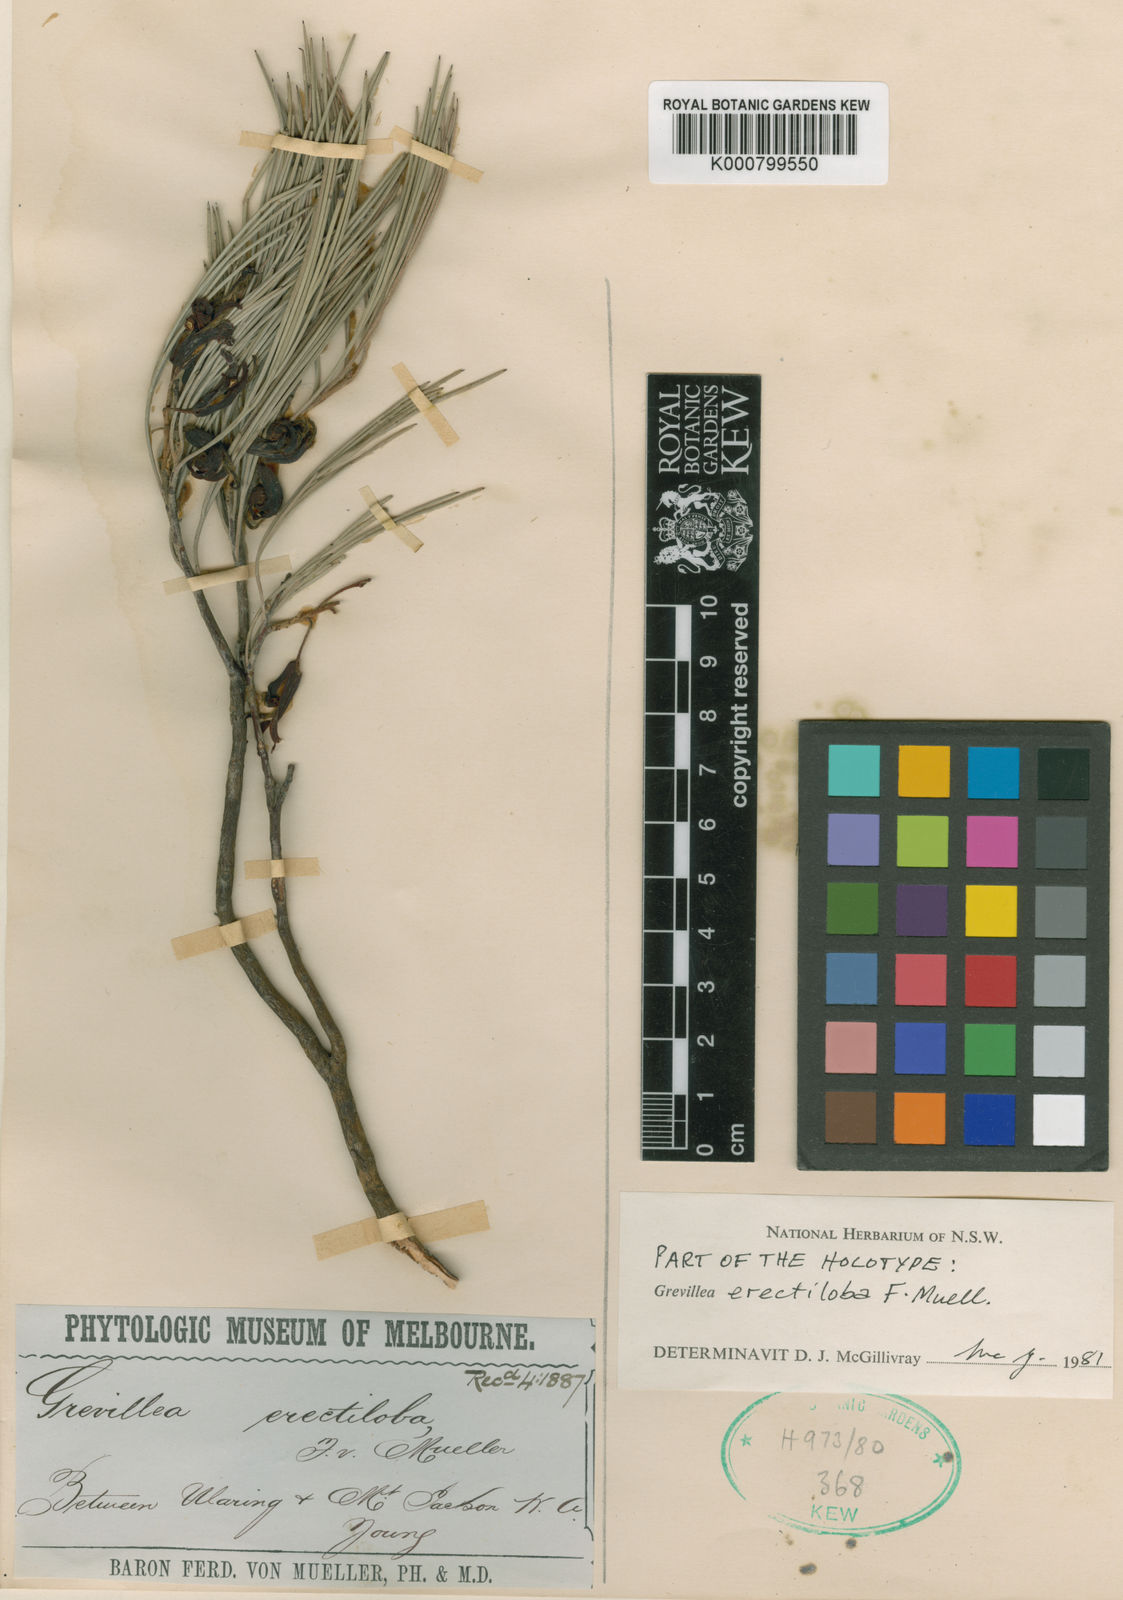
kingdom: Plantae
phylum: Tracheophyta
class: Magnoliopsida
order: Proteales
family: Proteaceae
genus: Grevillea
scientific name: Grevillea erectiloba
